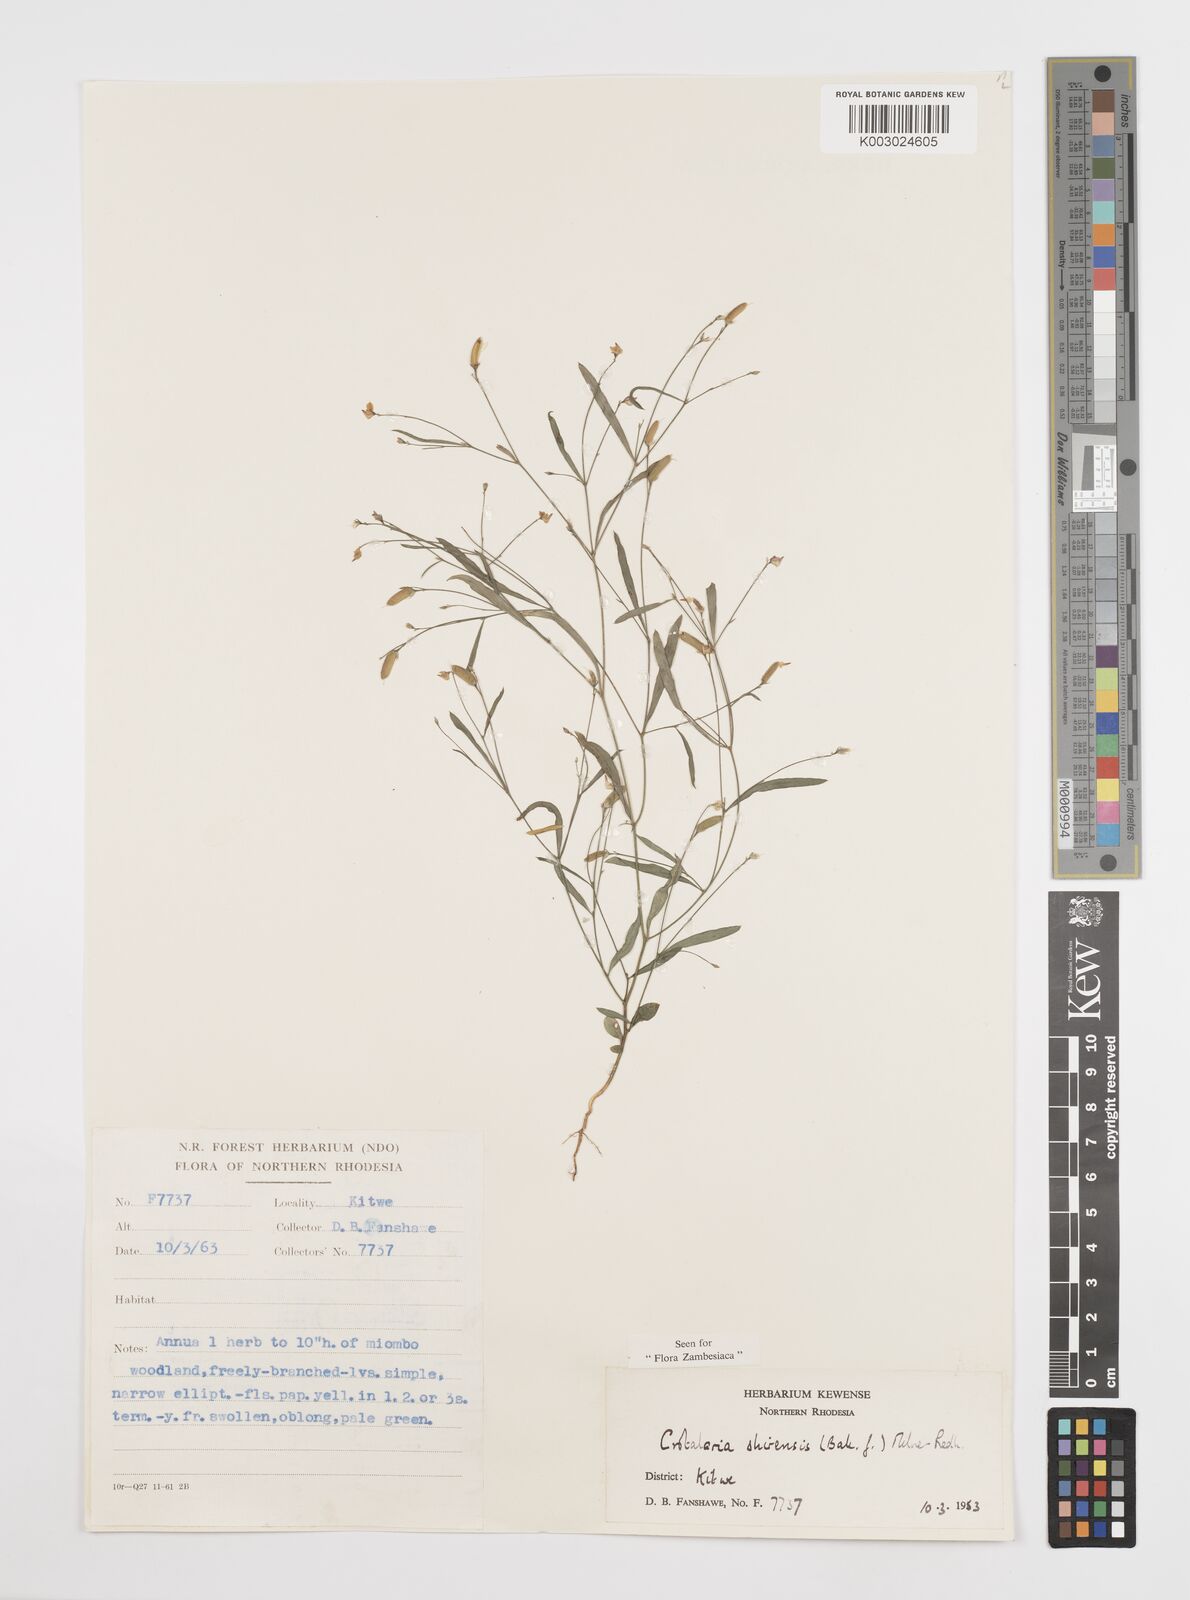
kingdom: Plantae
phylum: Tracheophyta
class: Magnoliopsida
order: Fabales
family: Fabaceae
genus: Crotalaria
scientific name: Crotalaria shirensis
